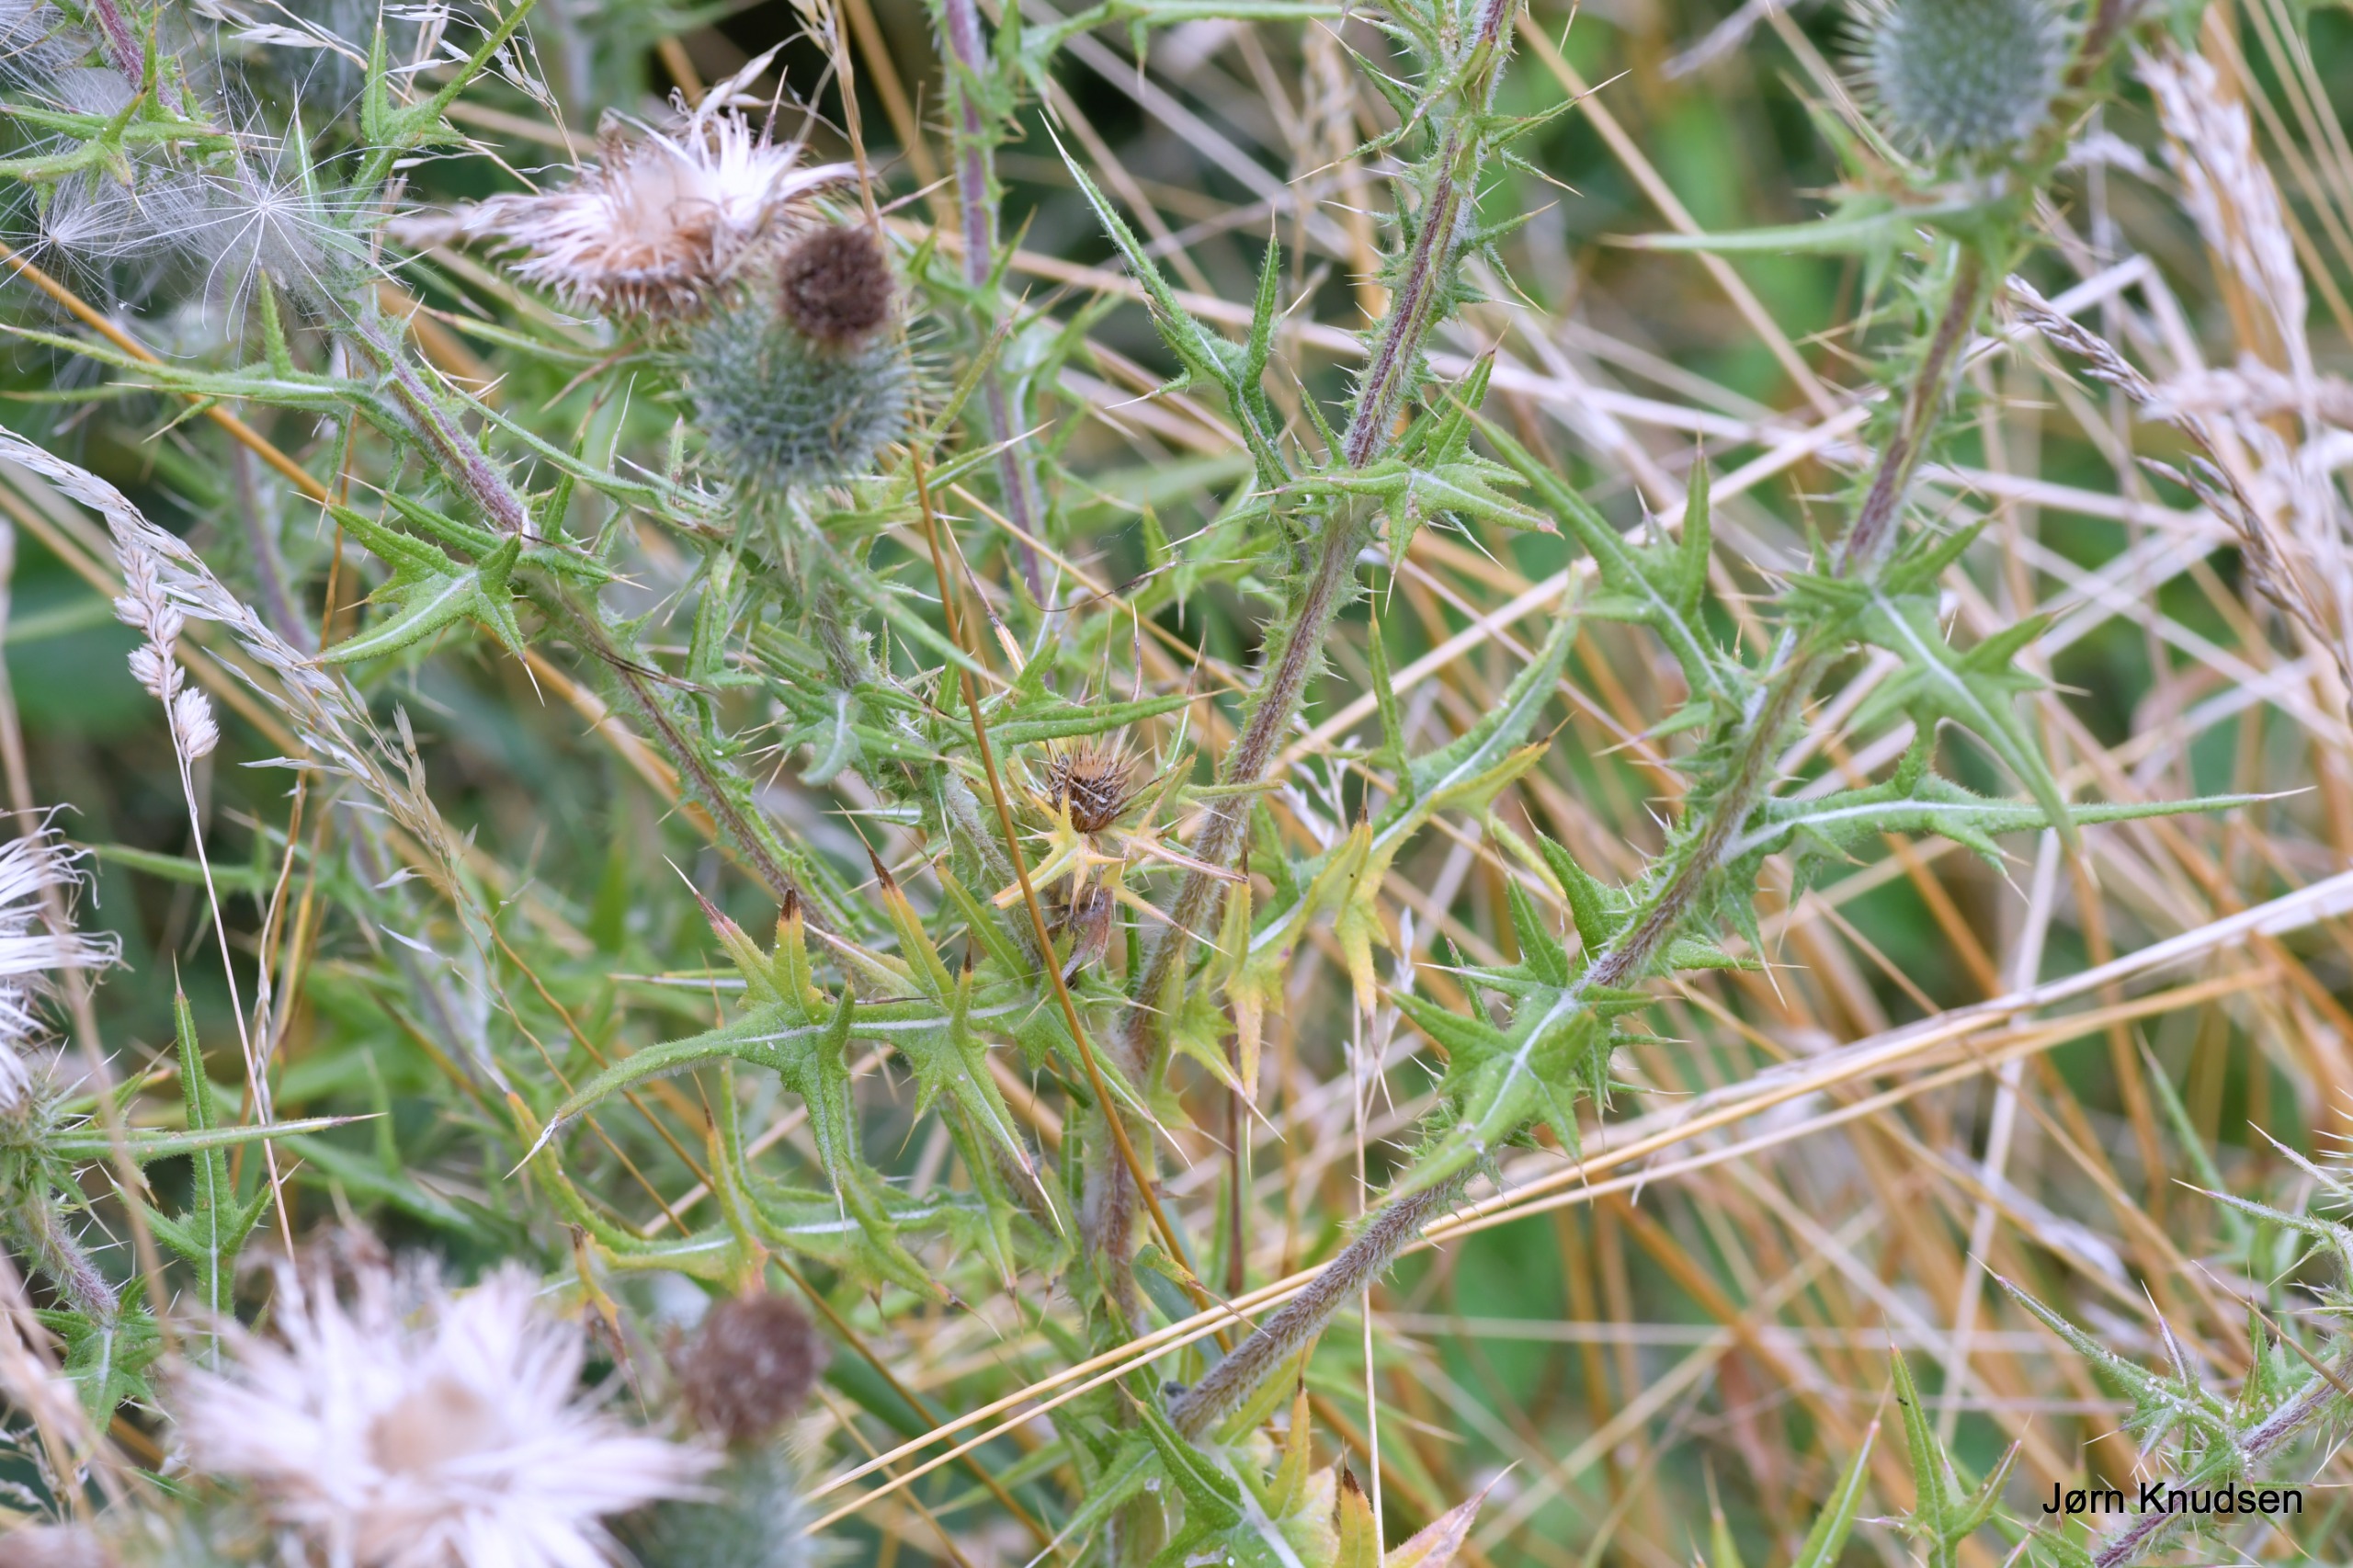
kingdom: Plantae
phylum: Tracheophyta
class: Magnoliopsida
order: Asterales
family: Asteraceae
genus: Cirsium
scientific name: Cirsium vulgare
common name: Horse-tidsel
